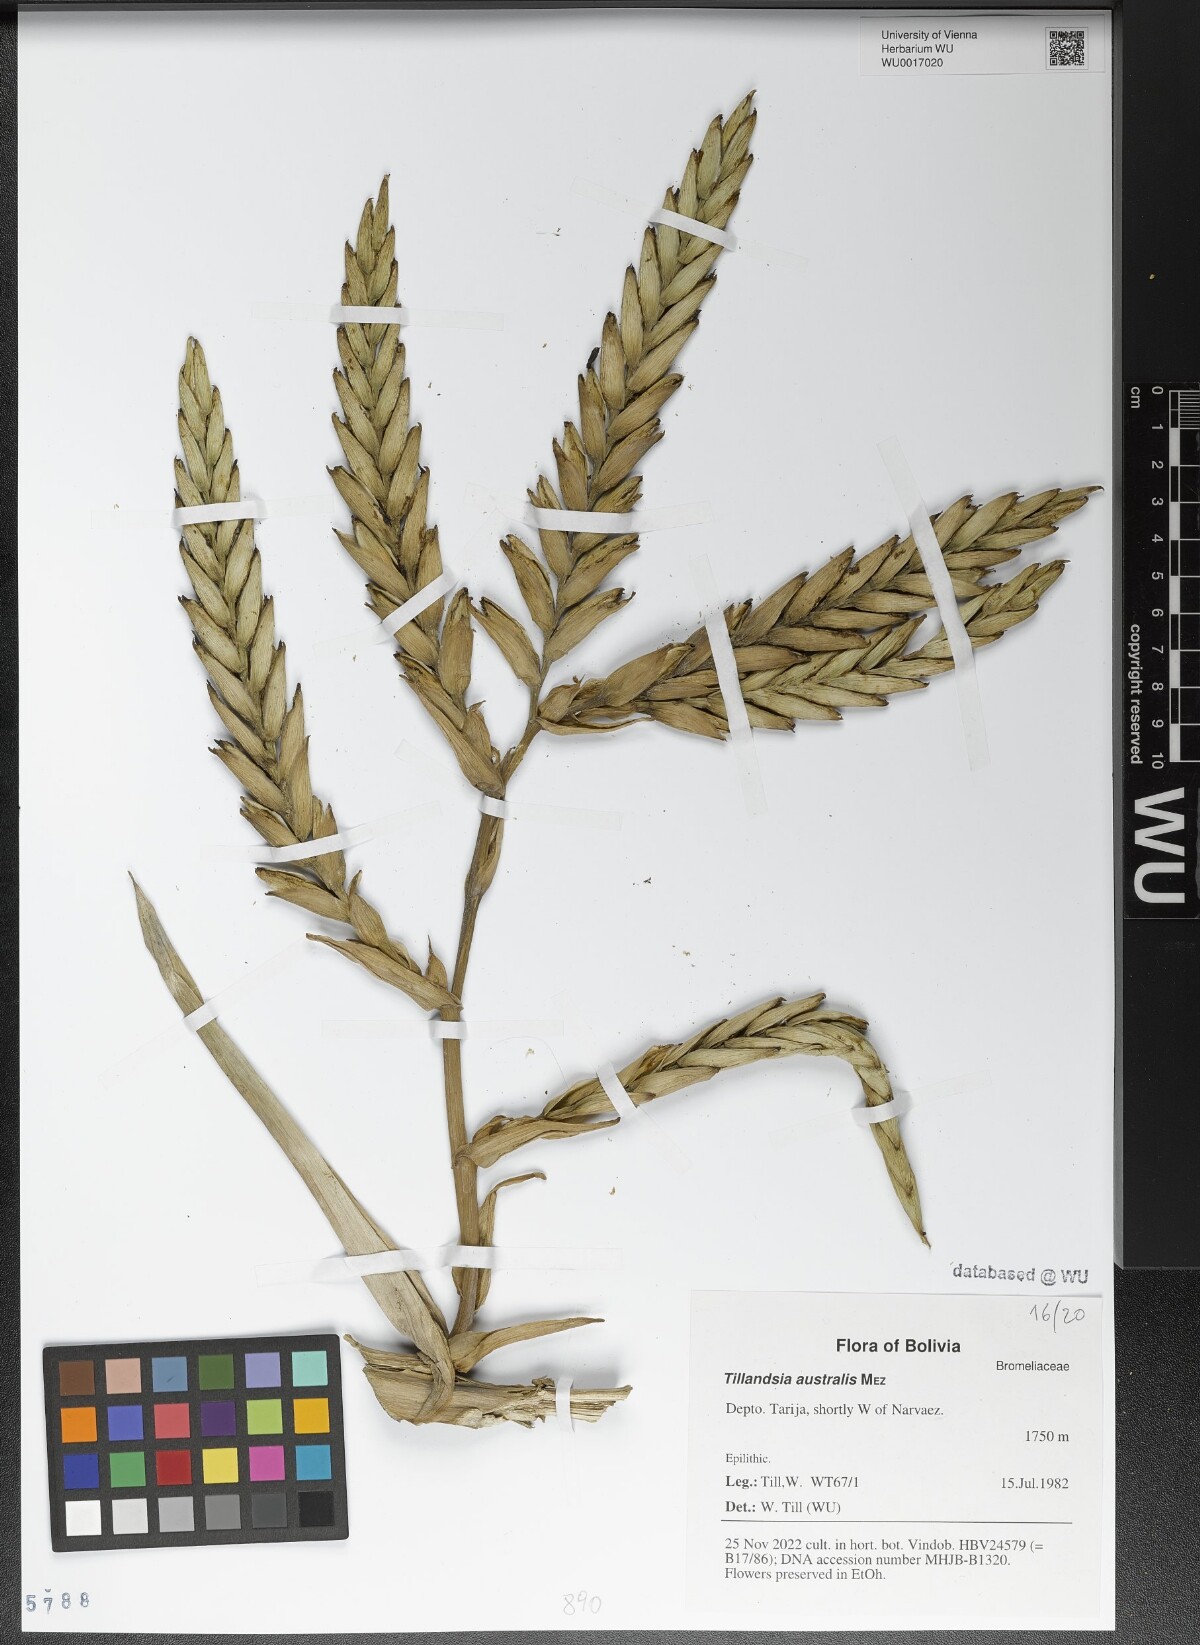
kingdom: Plantae
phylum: Tracheophyta
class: Liliopsida
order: Poales
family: Bromeliaceae
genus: Tillandsia
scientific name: Tillandsia australis
